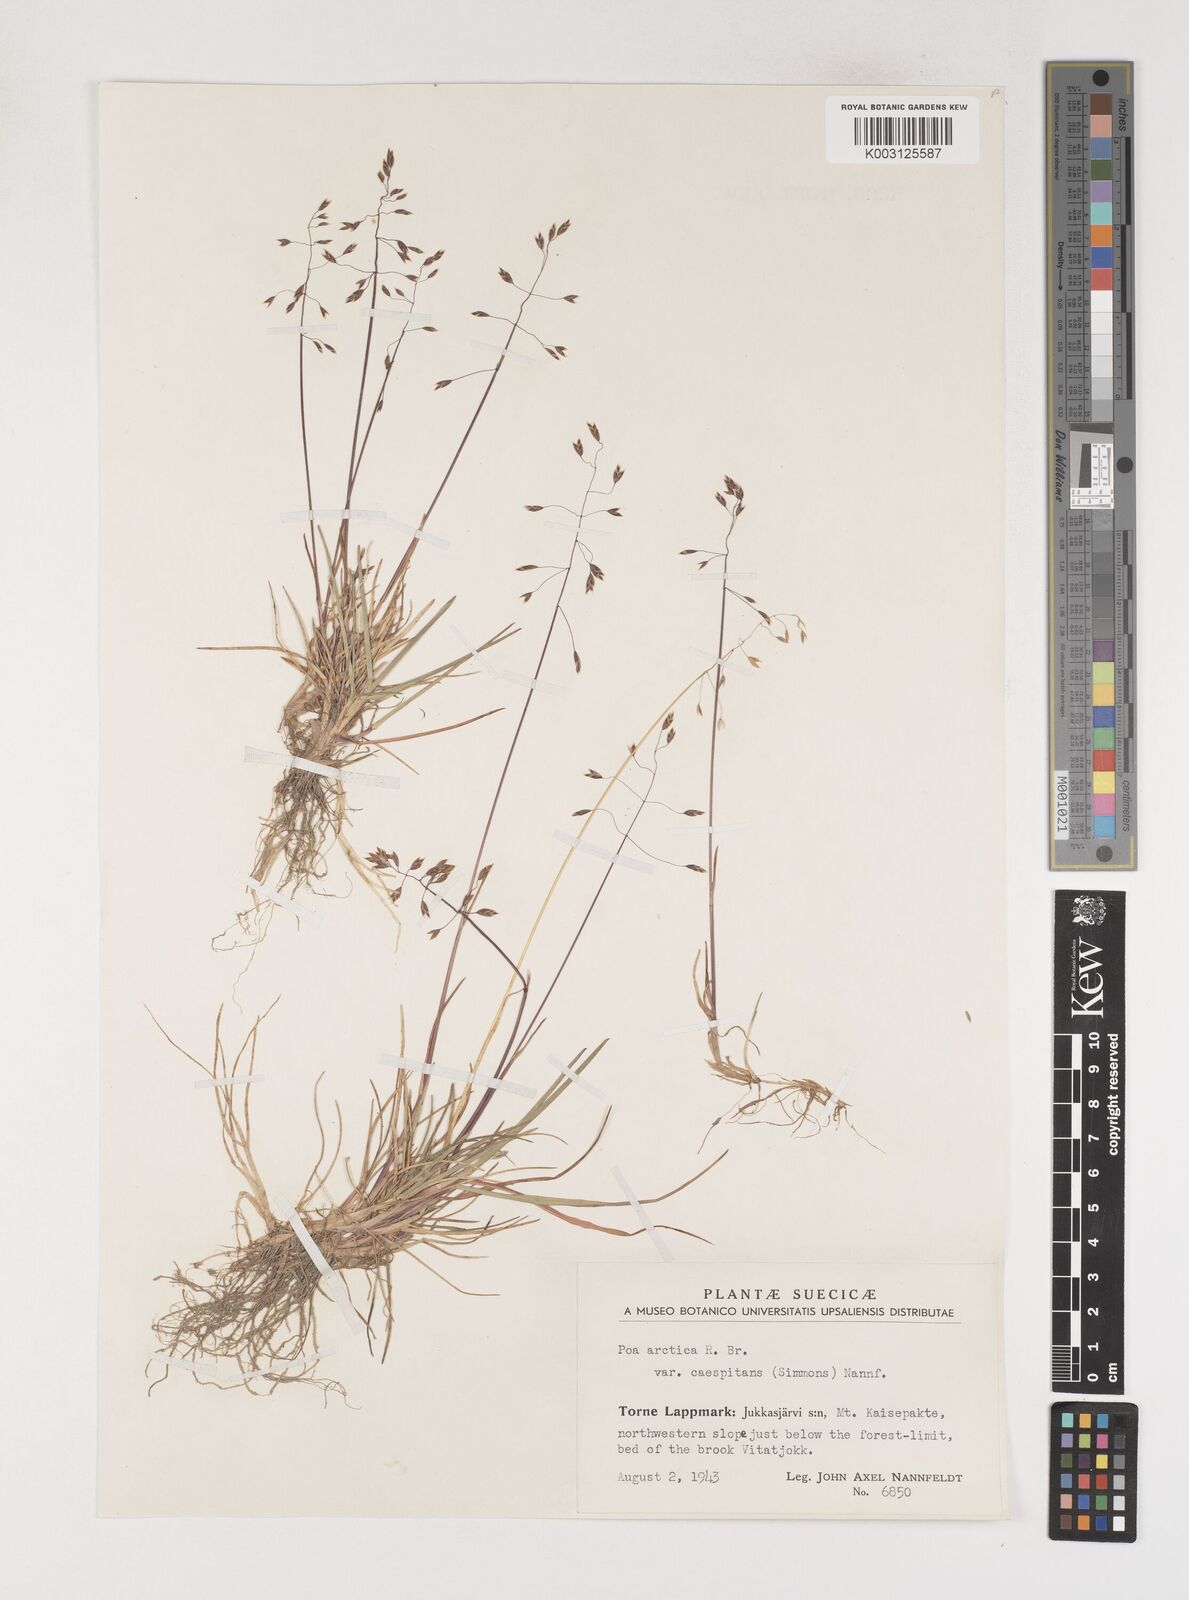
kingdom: Plantae
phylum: Tracheophyta
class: Liliopsida
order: Poales
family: Poaceae
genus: Poa
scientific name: Poa arctica
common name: Arctic bluegrass
